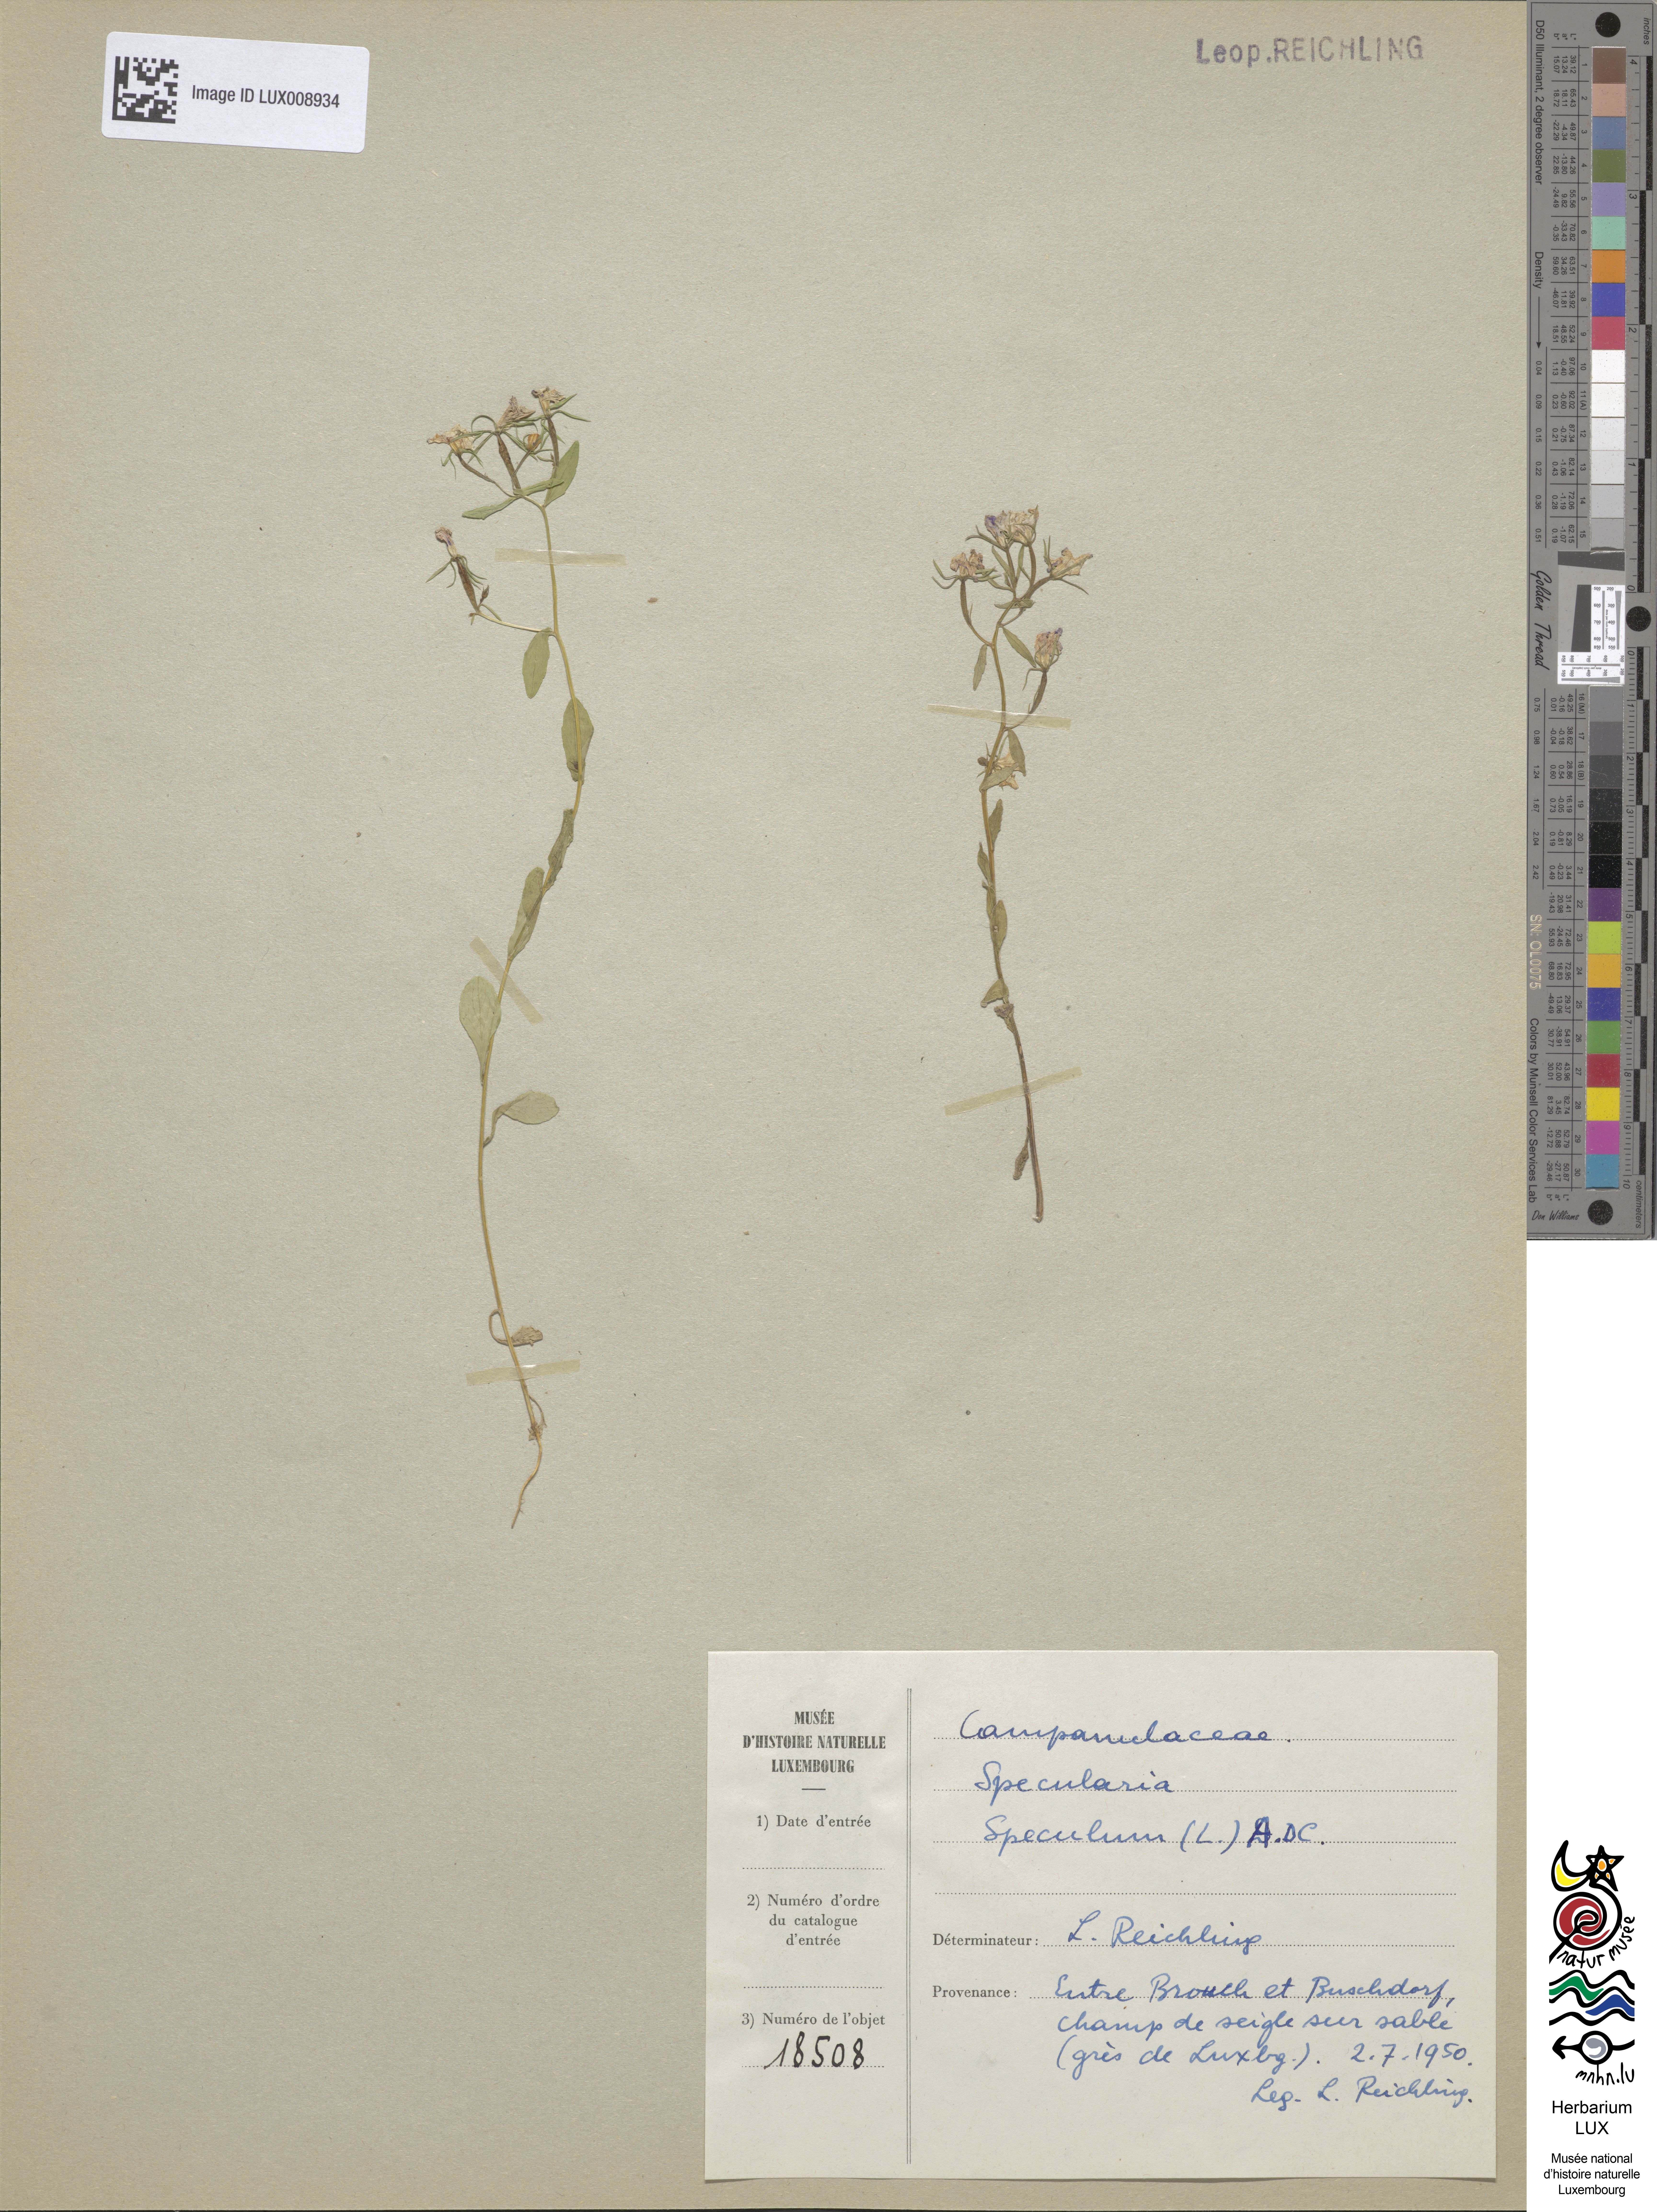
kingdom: Plantae
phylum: Tracheophyta
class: Magnoliopsida
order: Asterales
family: Campanulaceae
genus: Legousia
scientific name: Legousia speculum-veneris
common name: Large venus's-looking-glass
